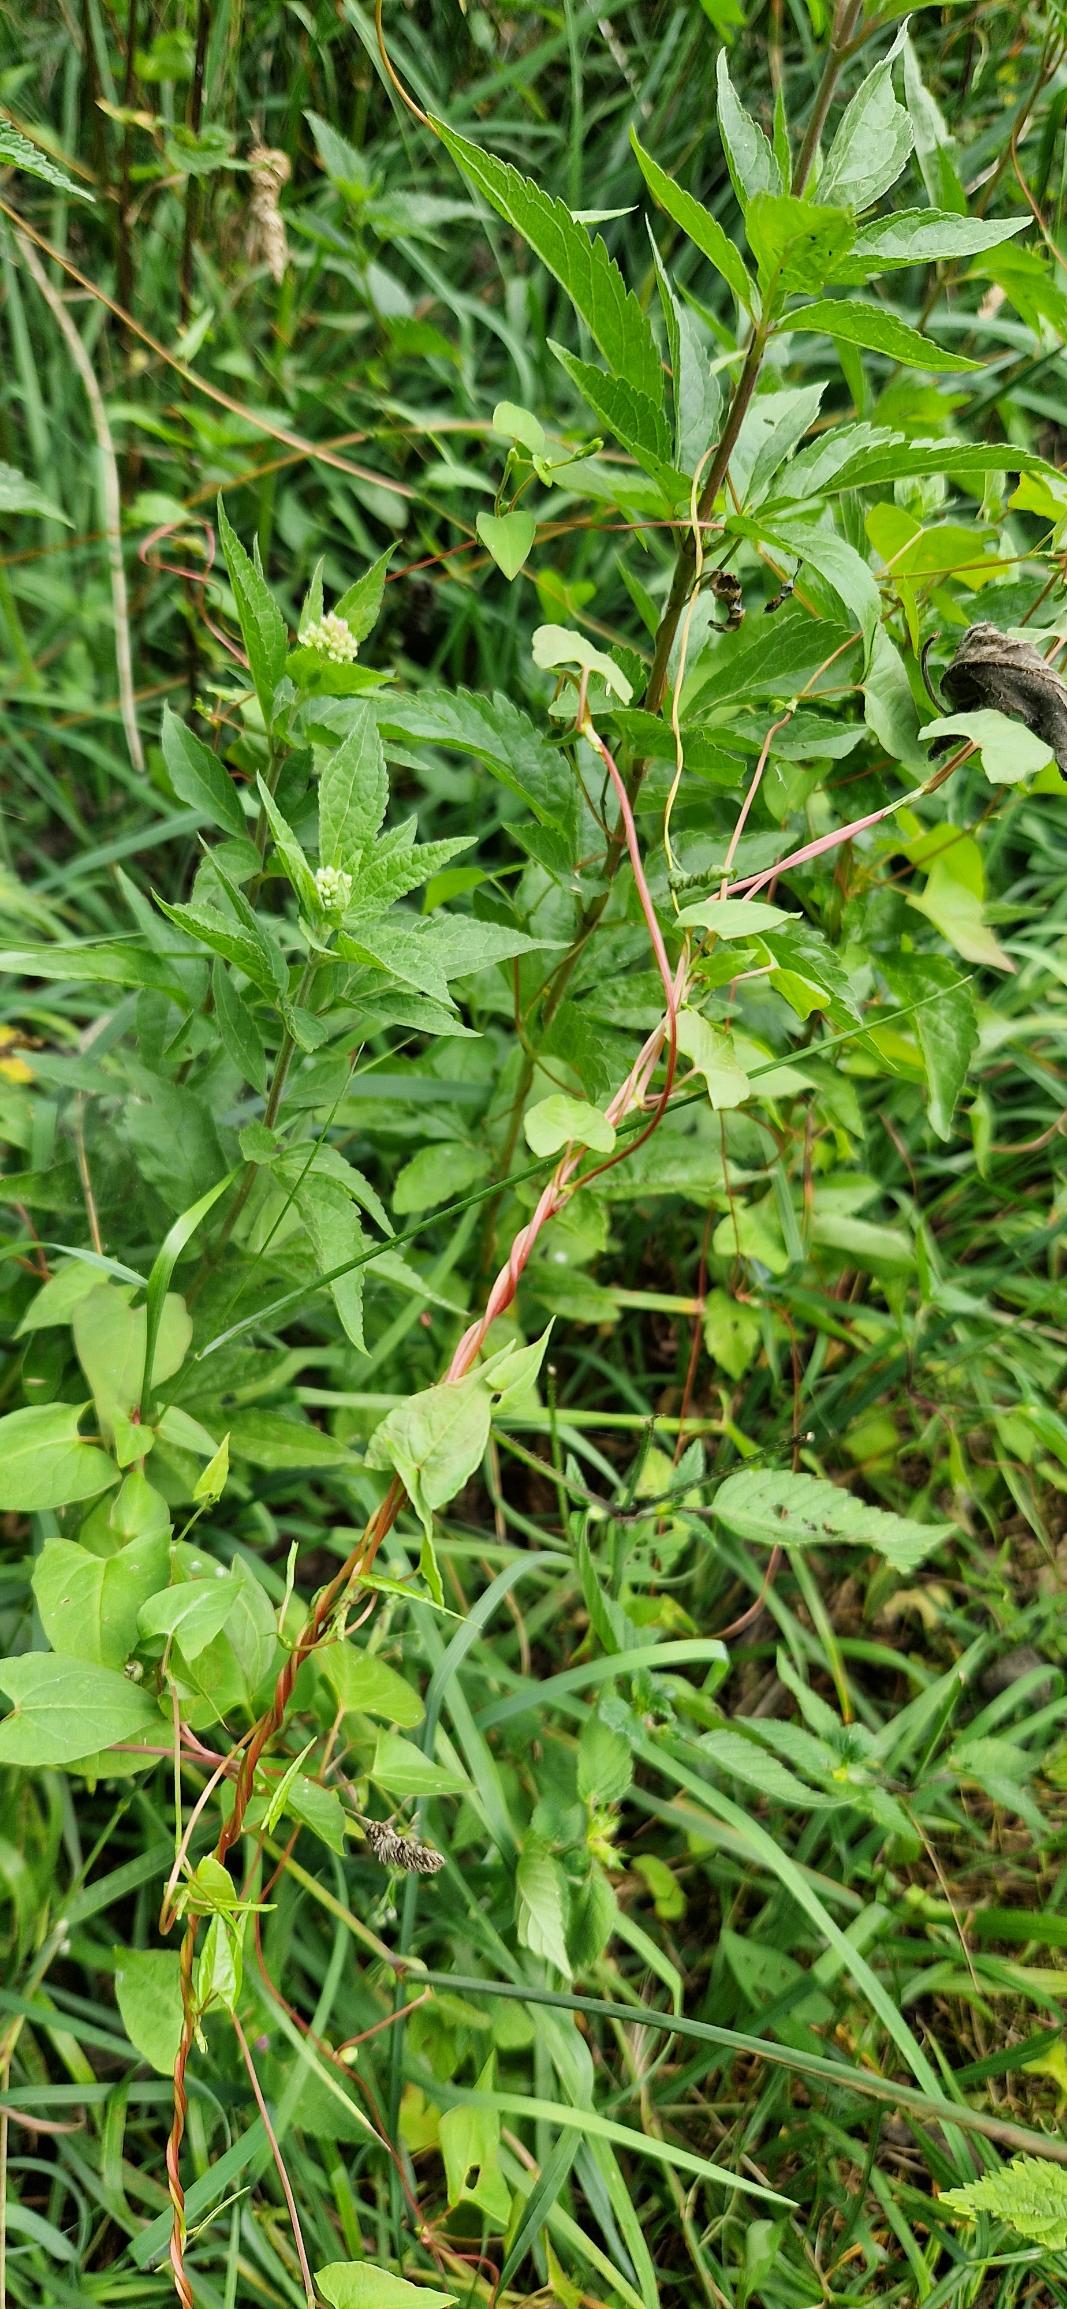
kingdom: Plantae
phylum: Tracheophyta
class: Magnoliopsida
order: Caryophyllales
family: Polygonaceae
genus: Fallopia
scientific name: Fallopia dumetorum
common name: Vinge-pileurt
